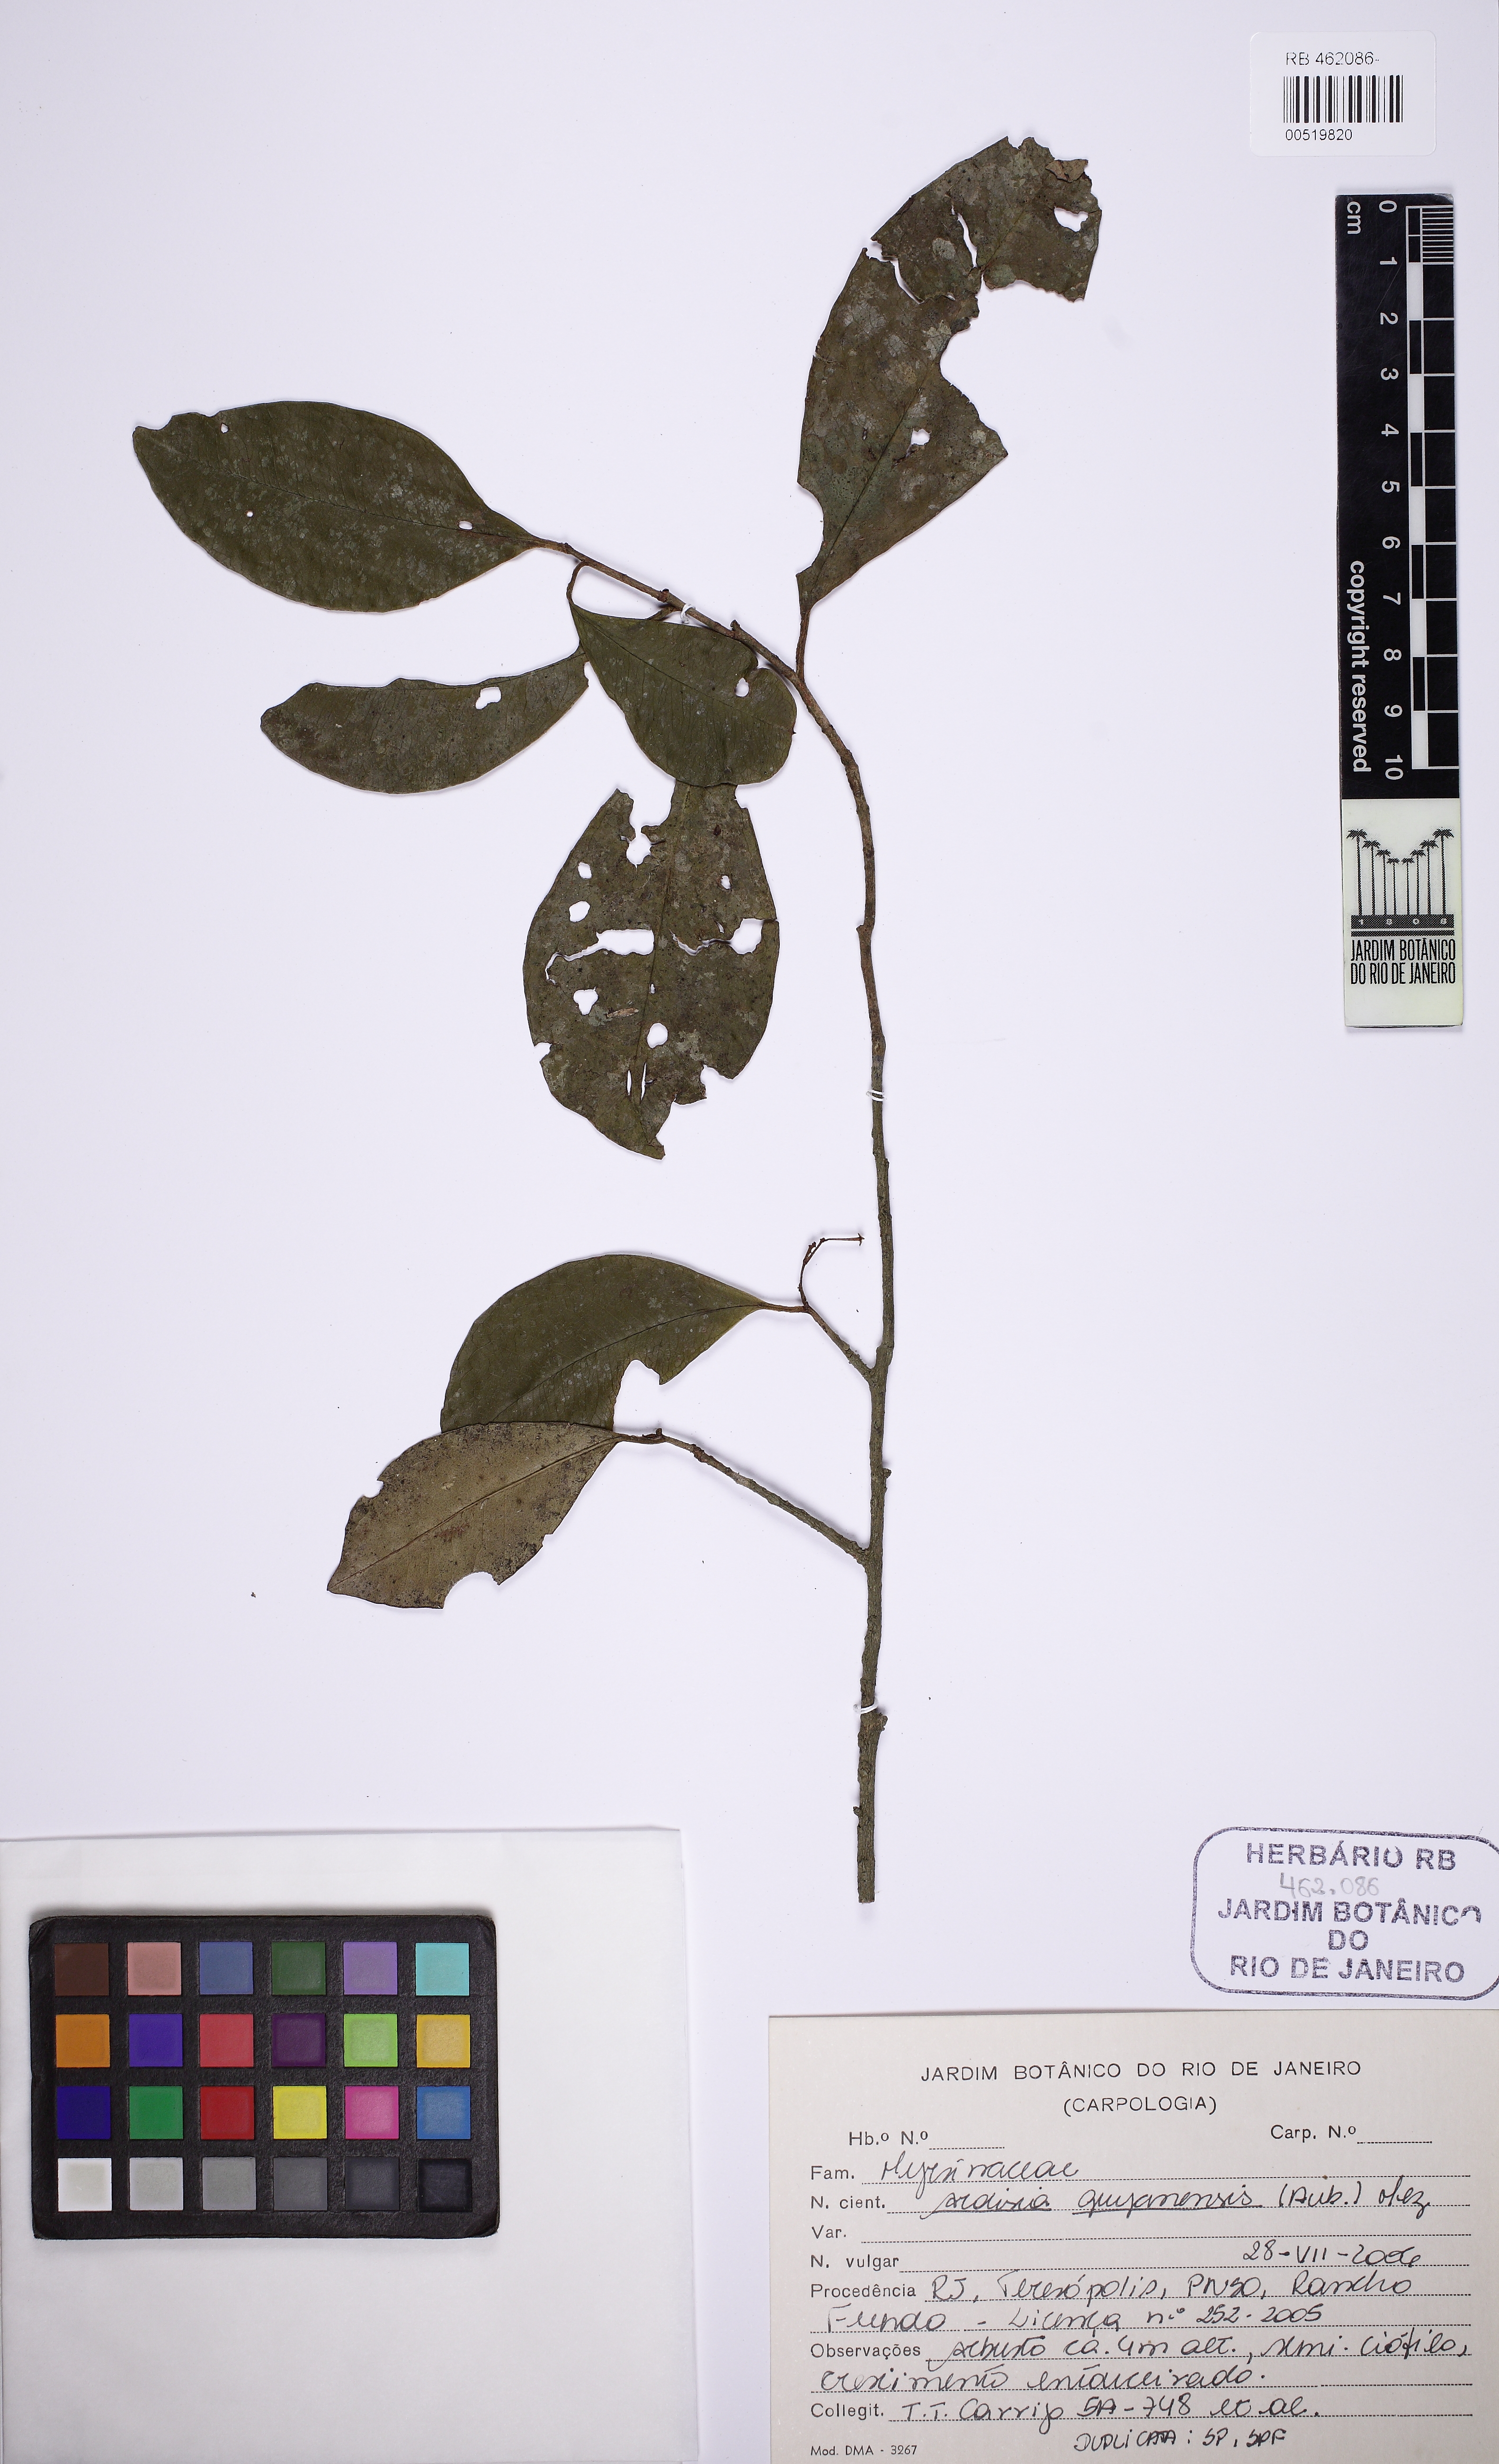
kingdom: Plantae
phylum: Tracheophyta
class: Magnoliopsida
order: Ericales
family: Primulaceae
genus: Stylogyne
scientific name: Stylogyne pauciflora
